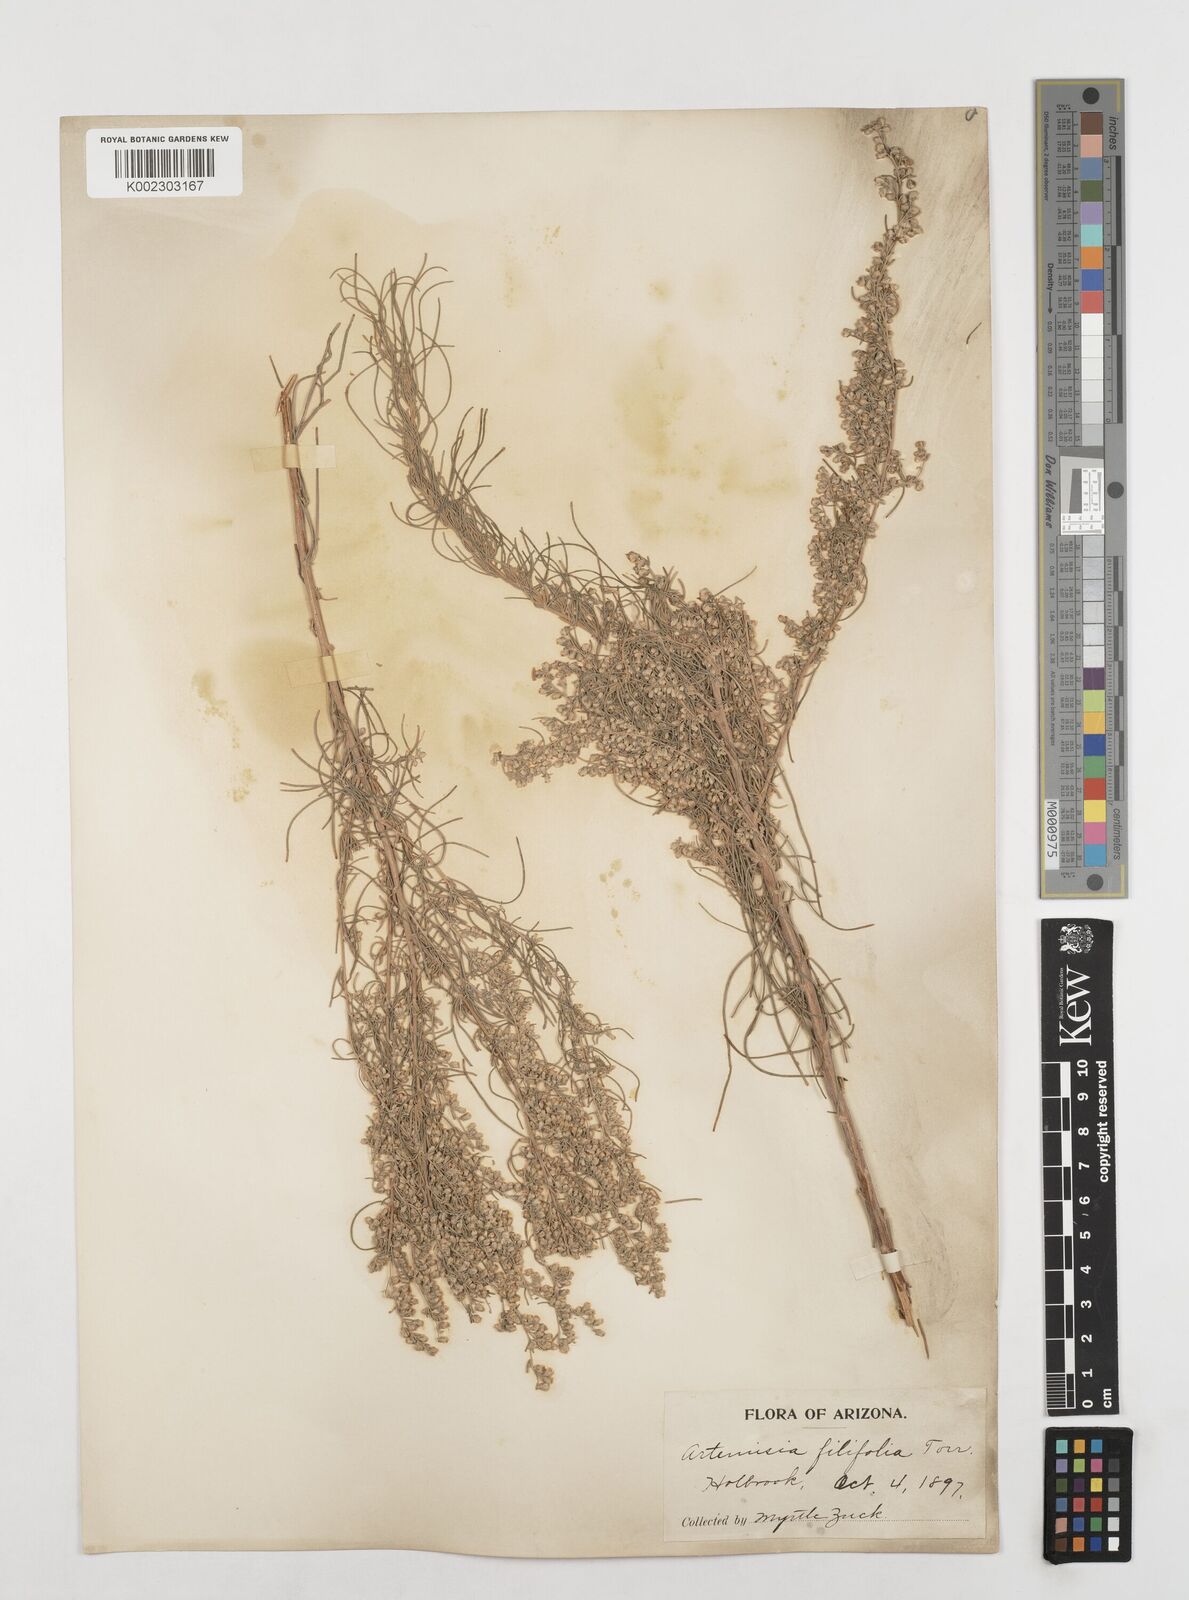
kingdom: Plantae
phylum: Tracheophyta
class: Magnoliopsida
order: Asterales
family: Asteraceae
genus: Artemisia
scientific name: Artemisia filifolia
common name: Sand-sage
